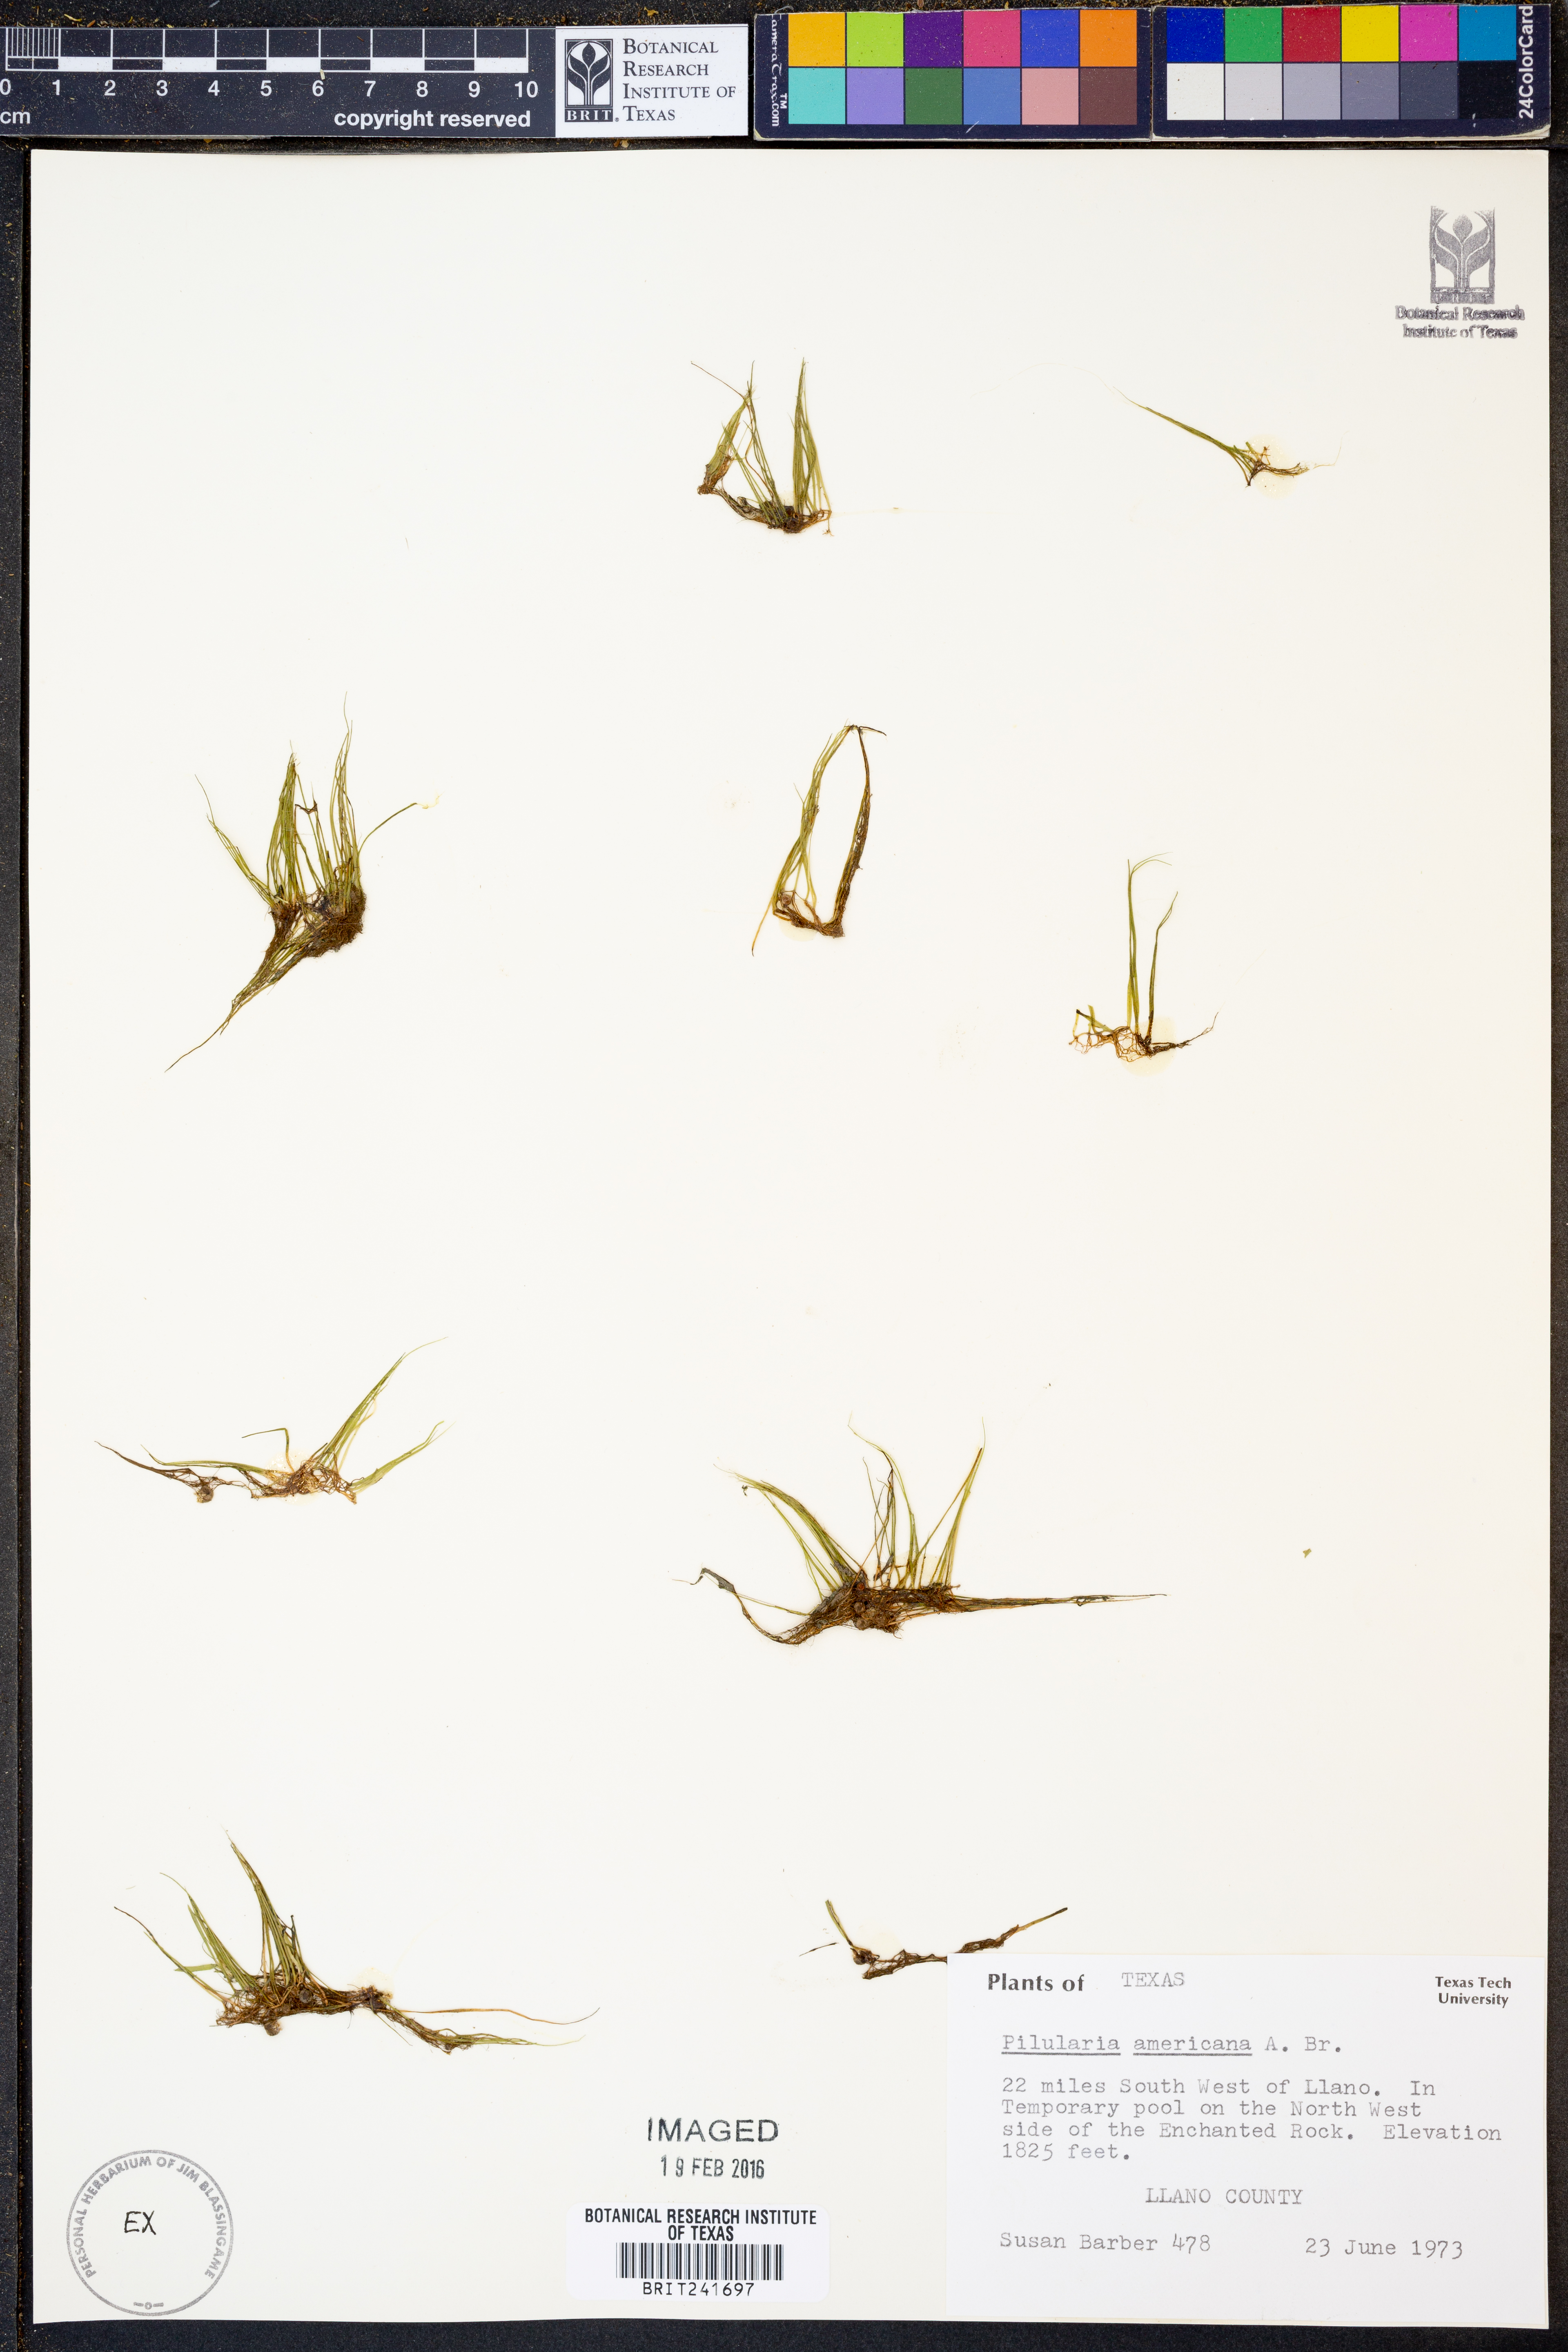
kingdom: Plantae
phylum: Tracheophyta
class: Polypodiopsida
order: Salviniales
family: Marsileaceae
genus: Pilularia
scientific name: Pilularia americana
